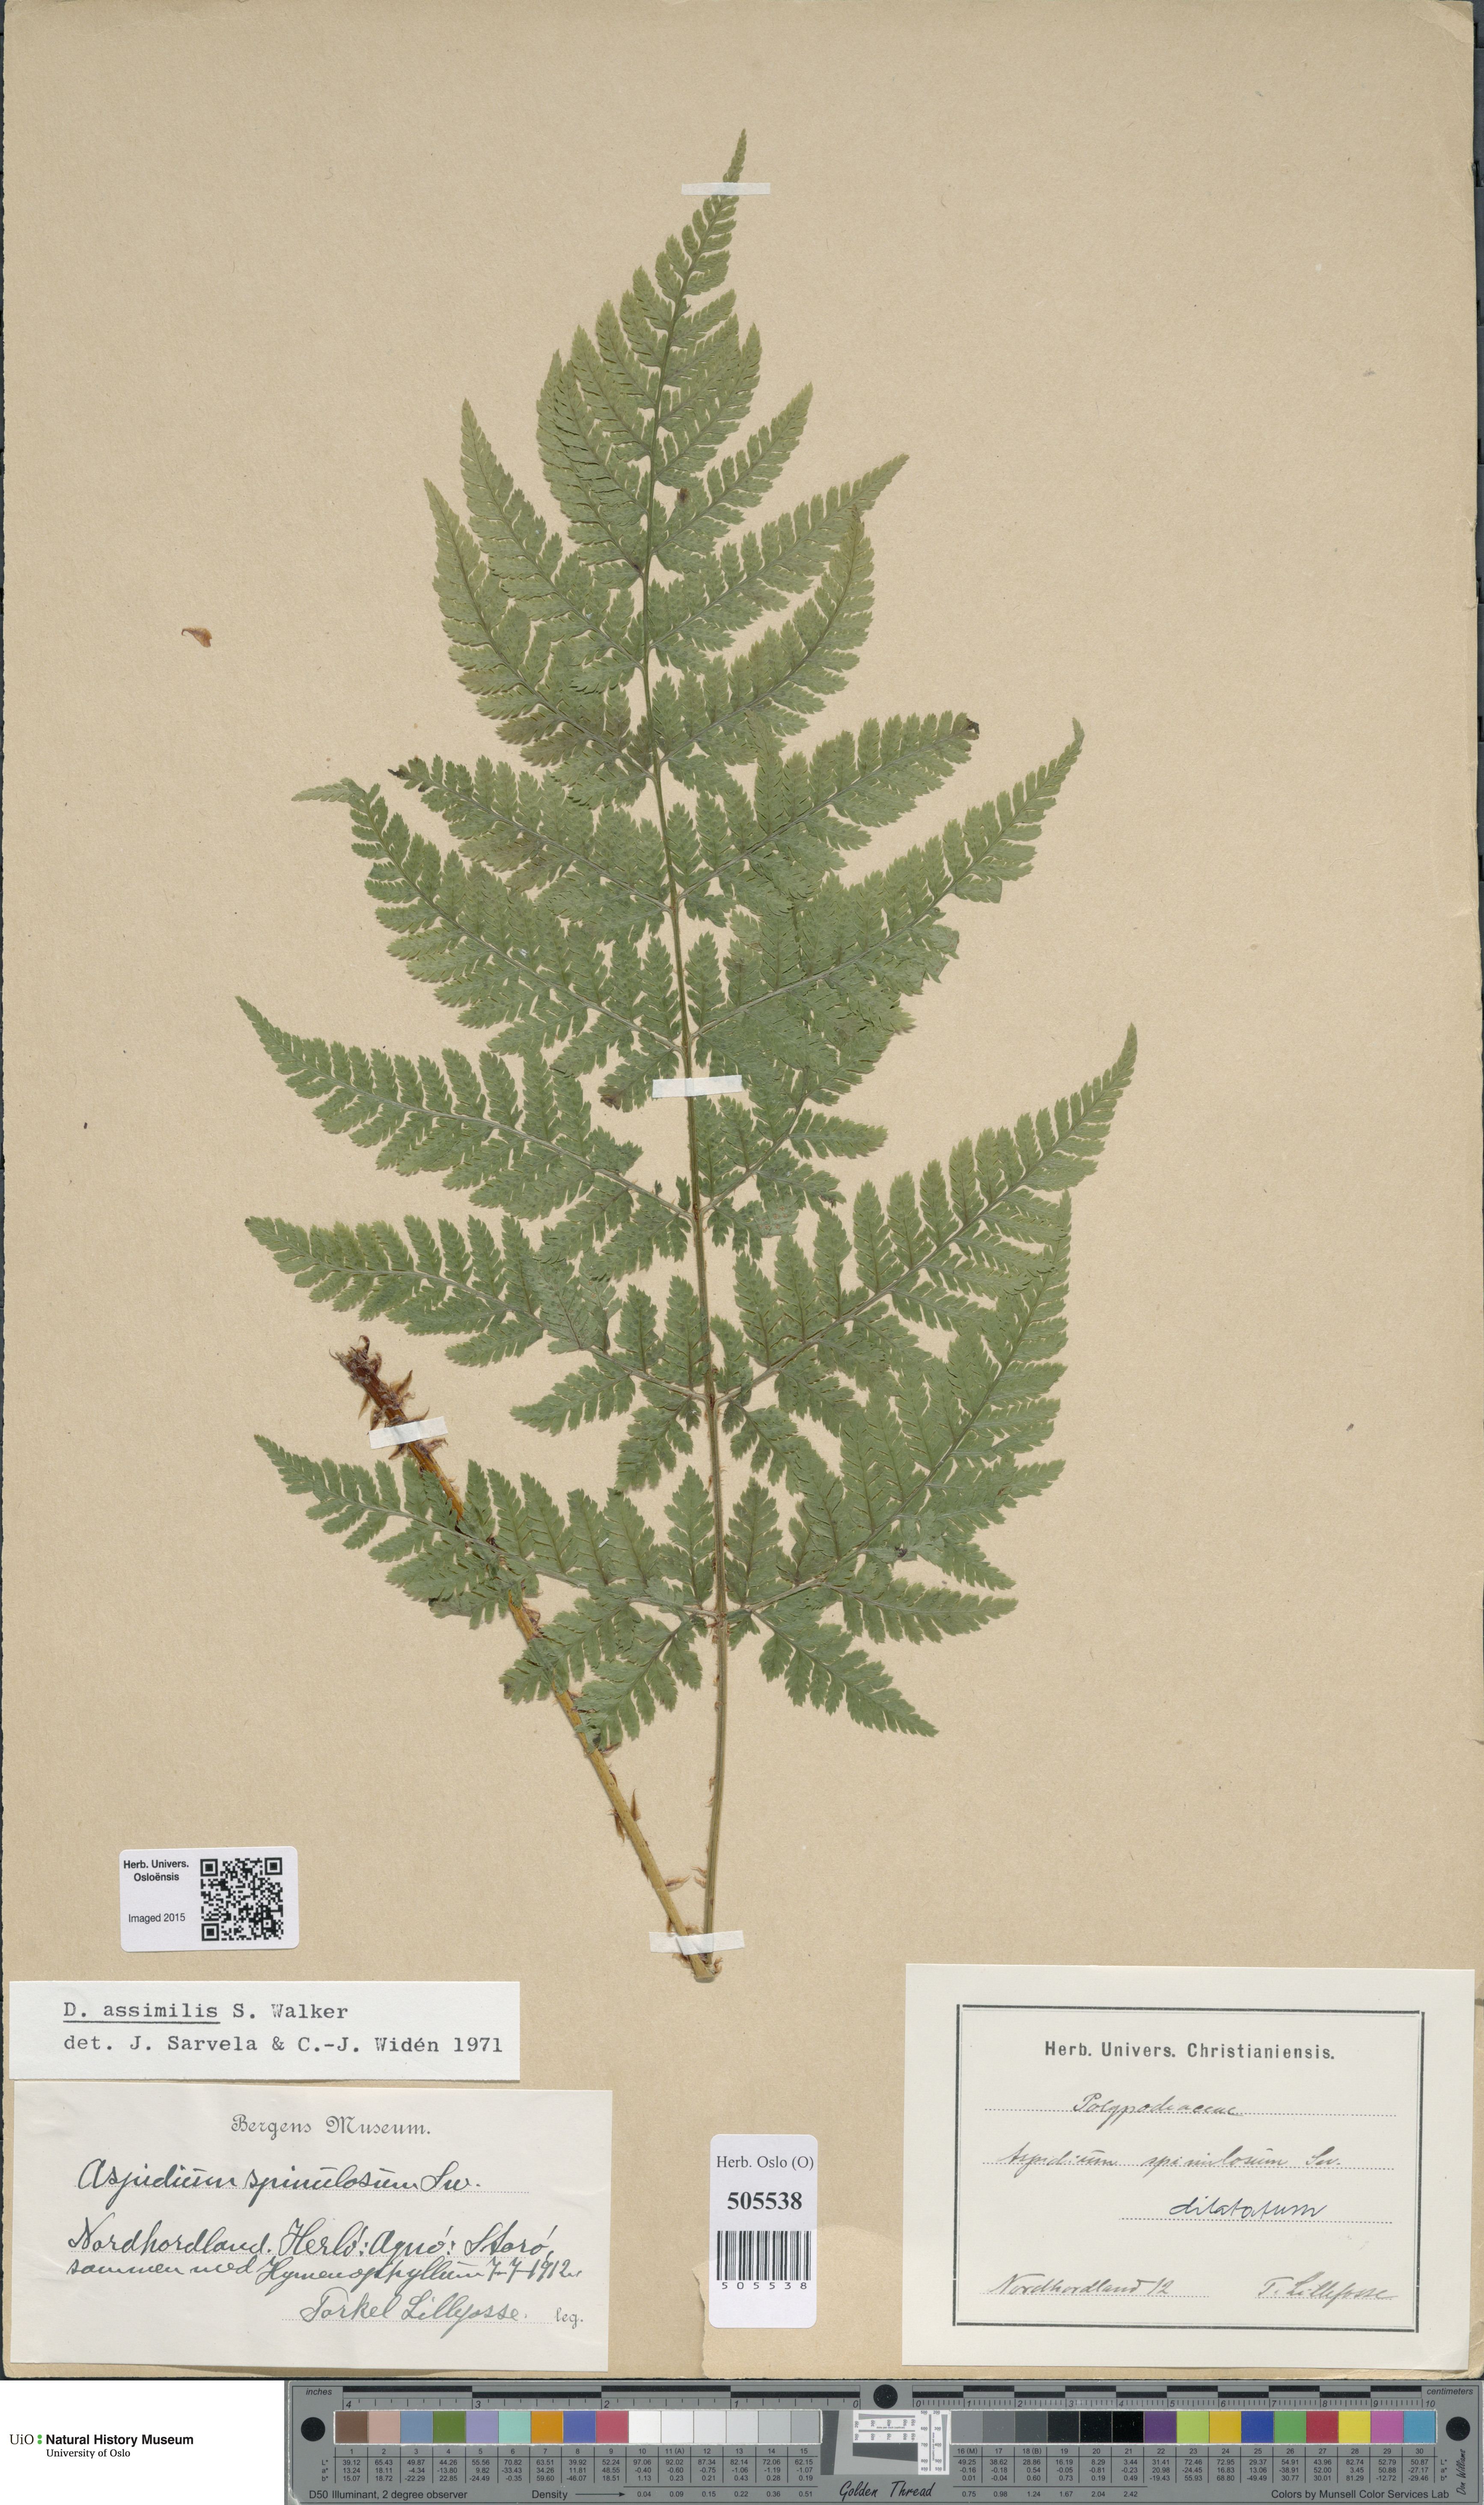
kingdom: Plantae
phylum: Tracheophyta
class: Polypodiopsida
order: Polypodiales
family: Dryopteridaceae
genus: Dryopteris
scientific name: Dryopteris expansa
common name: Northern buckler fern
